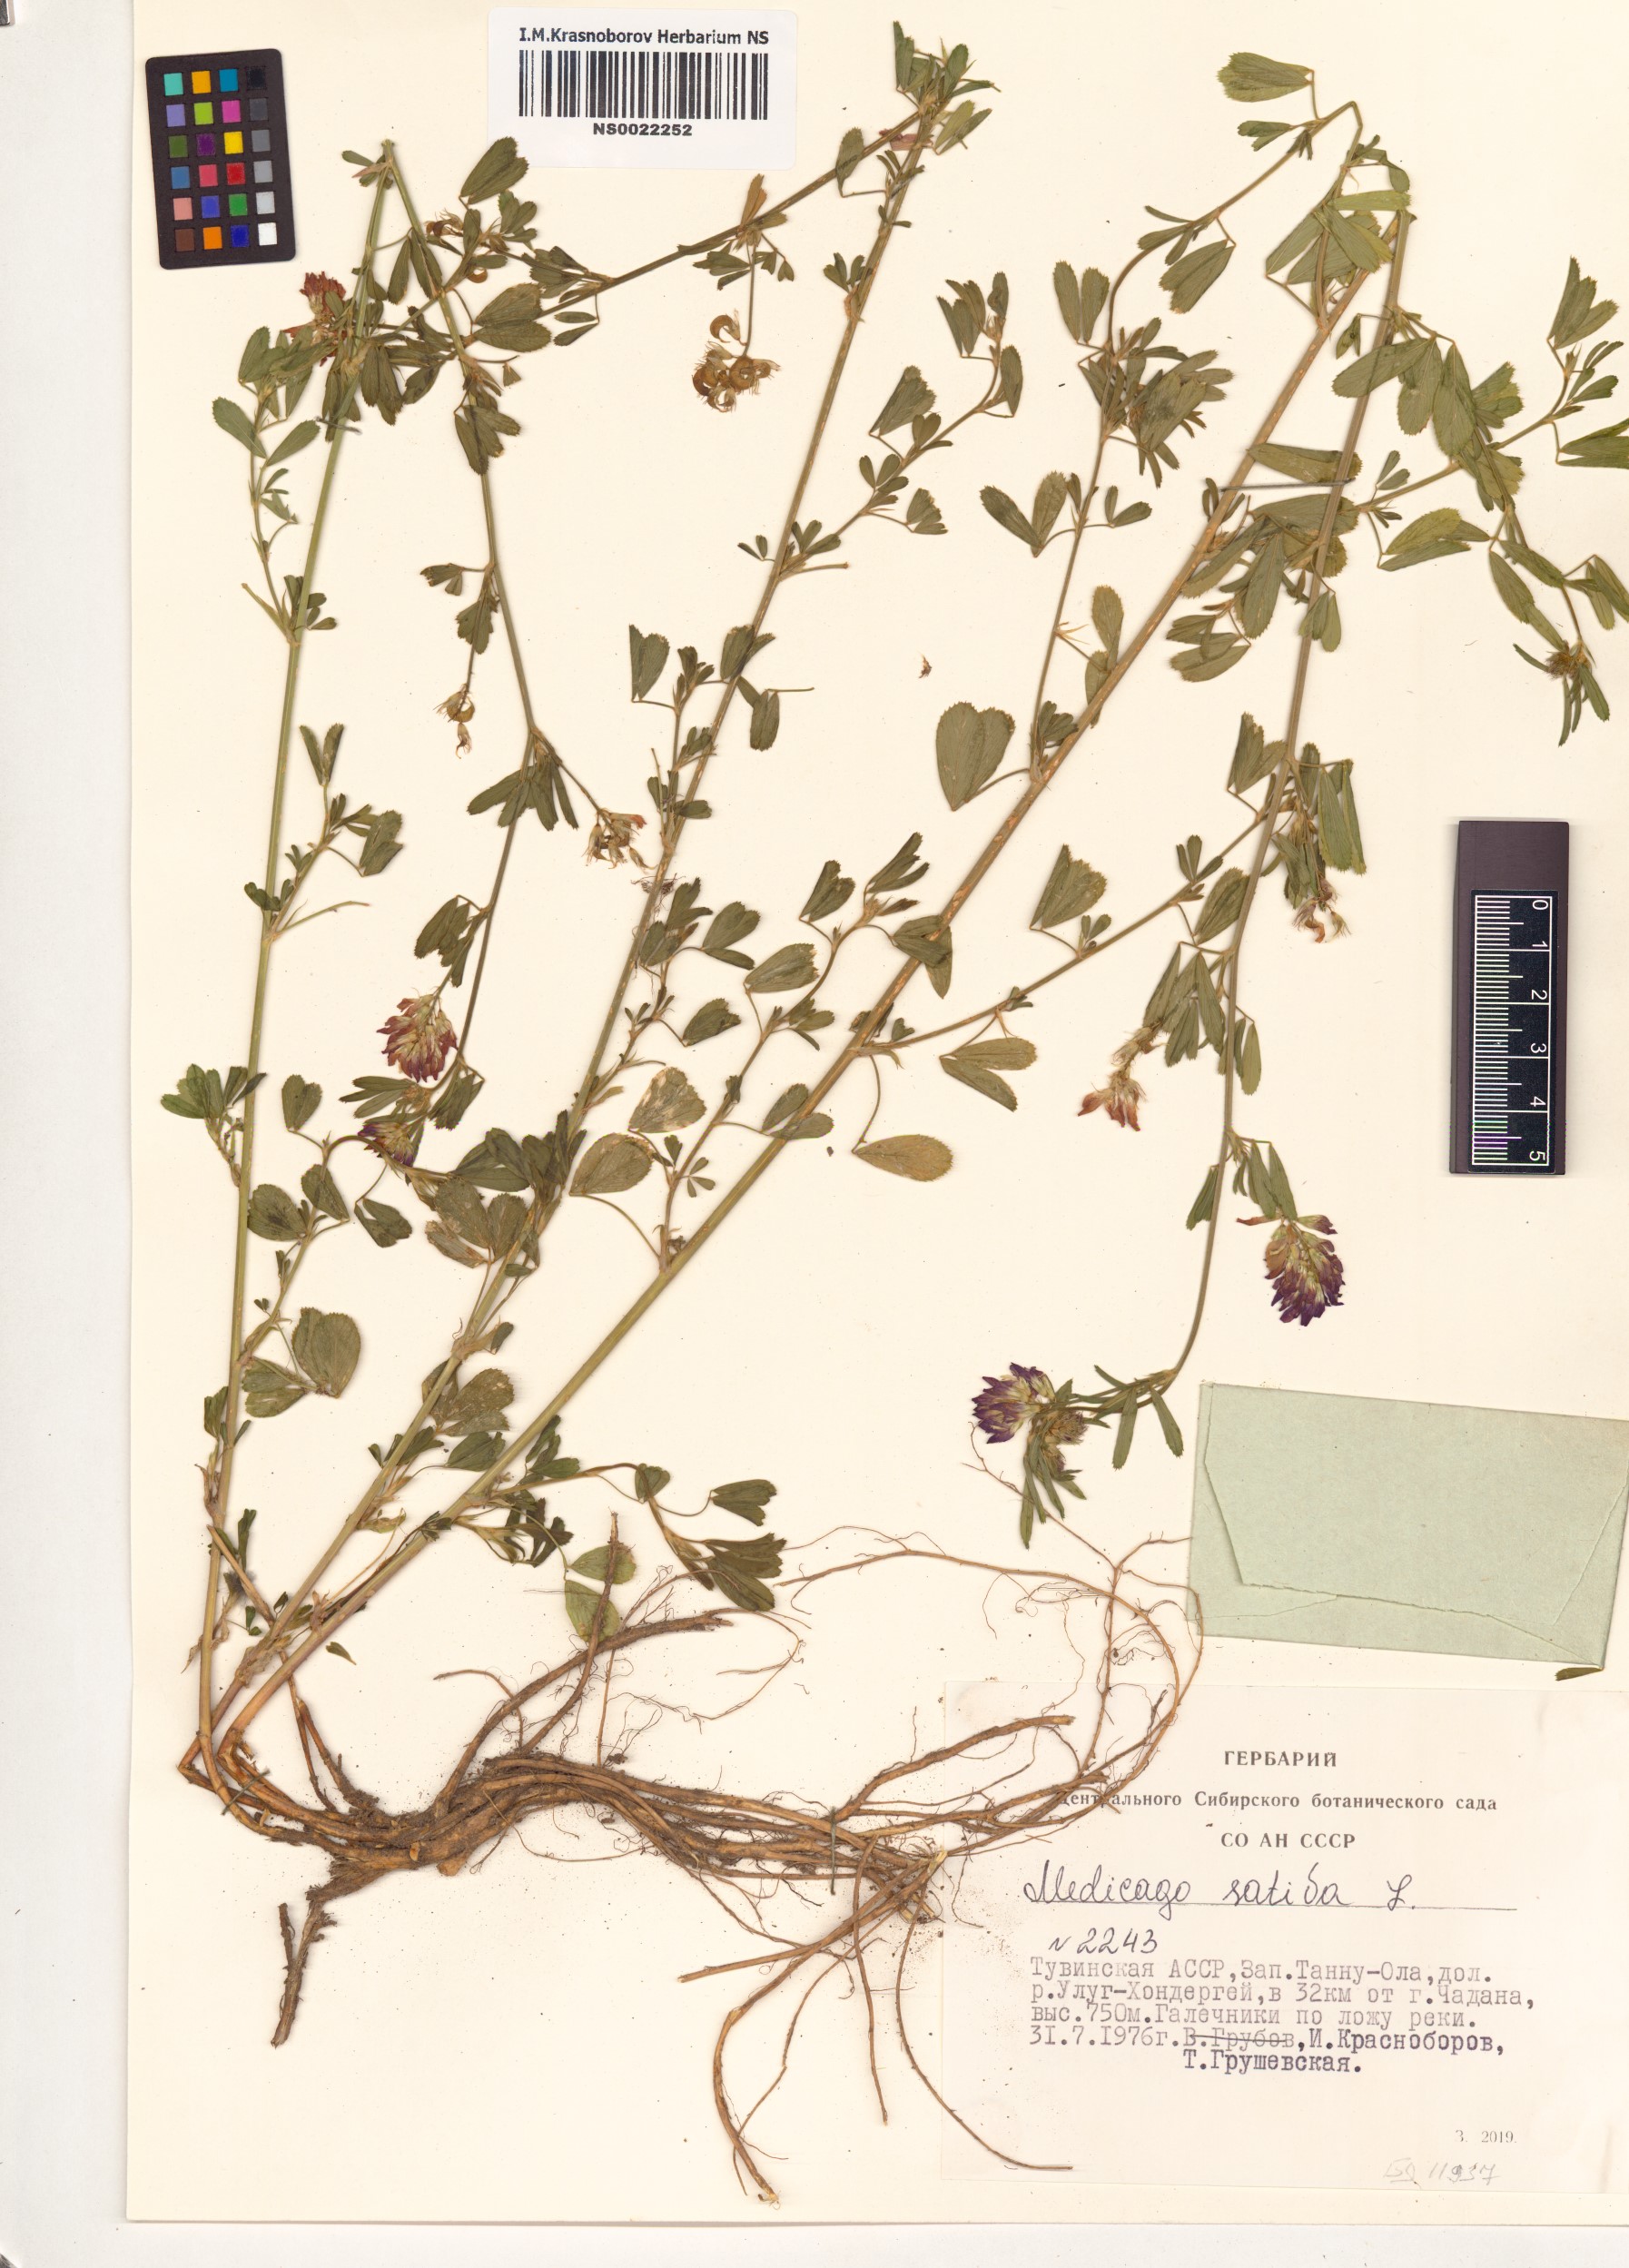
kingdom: Plantae
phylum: Tracheophyta
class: Magnoliopsida
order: Fabales
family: Fabaceae
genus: Medicago
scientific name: Medicago sativa
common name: Alfalfa
